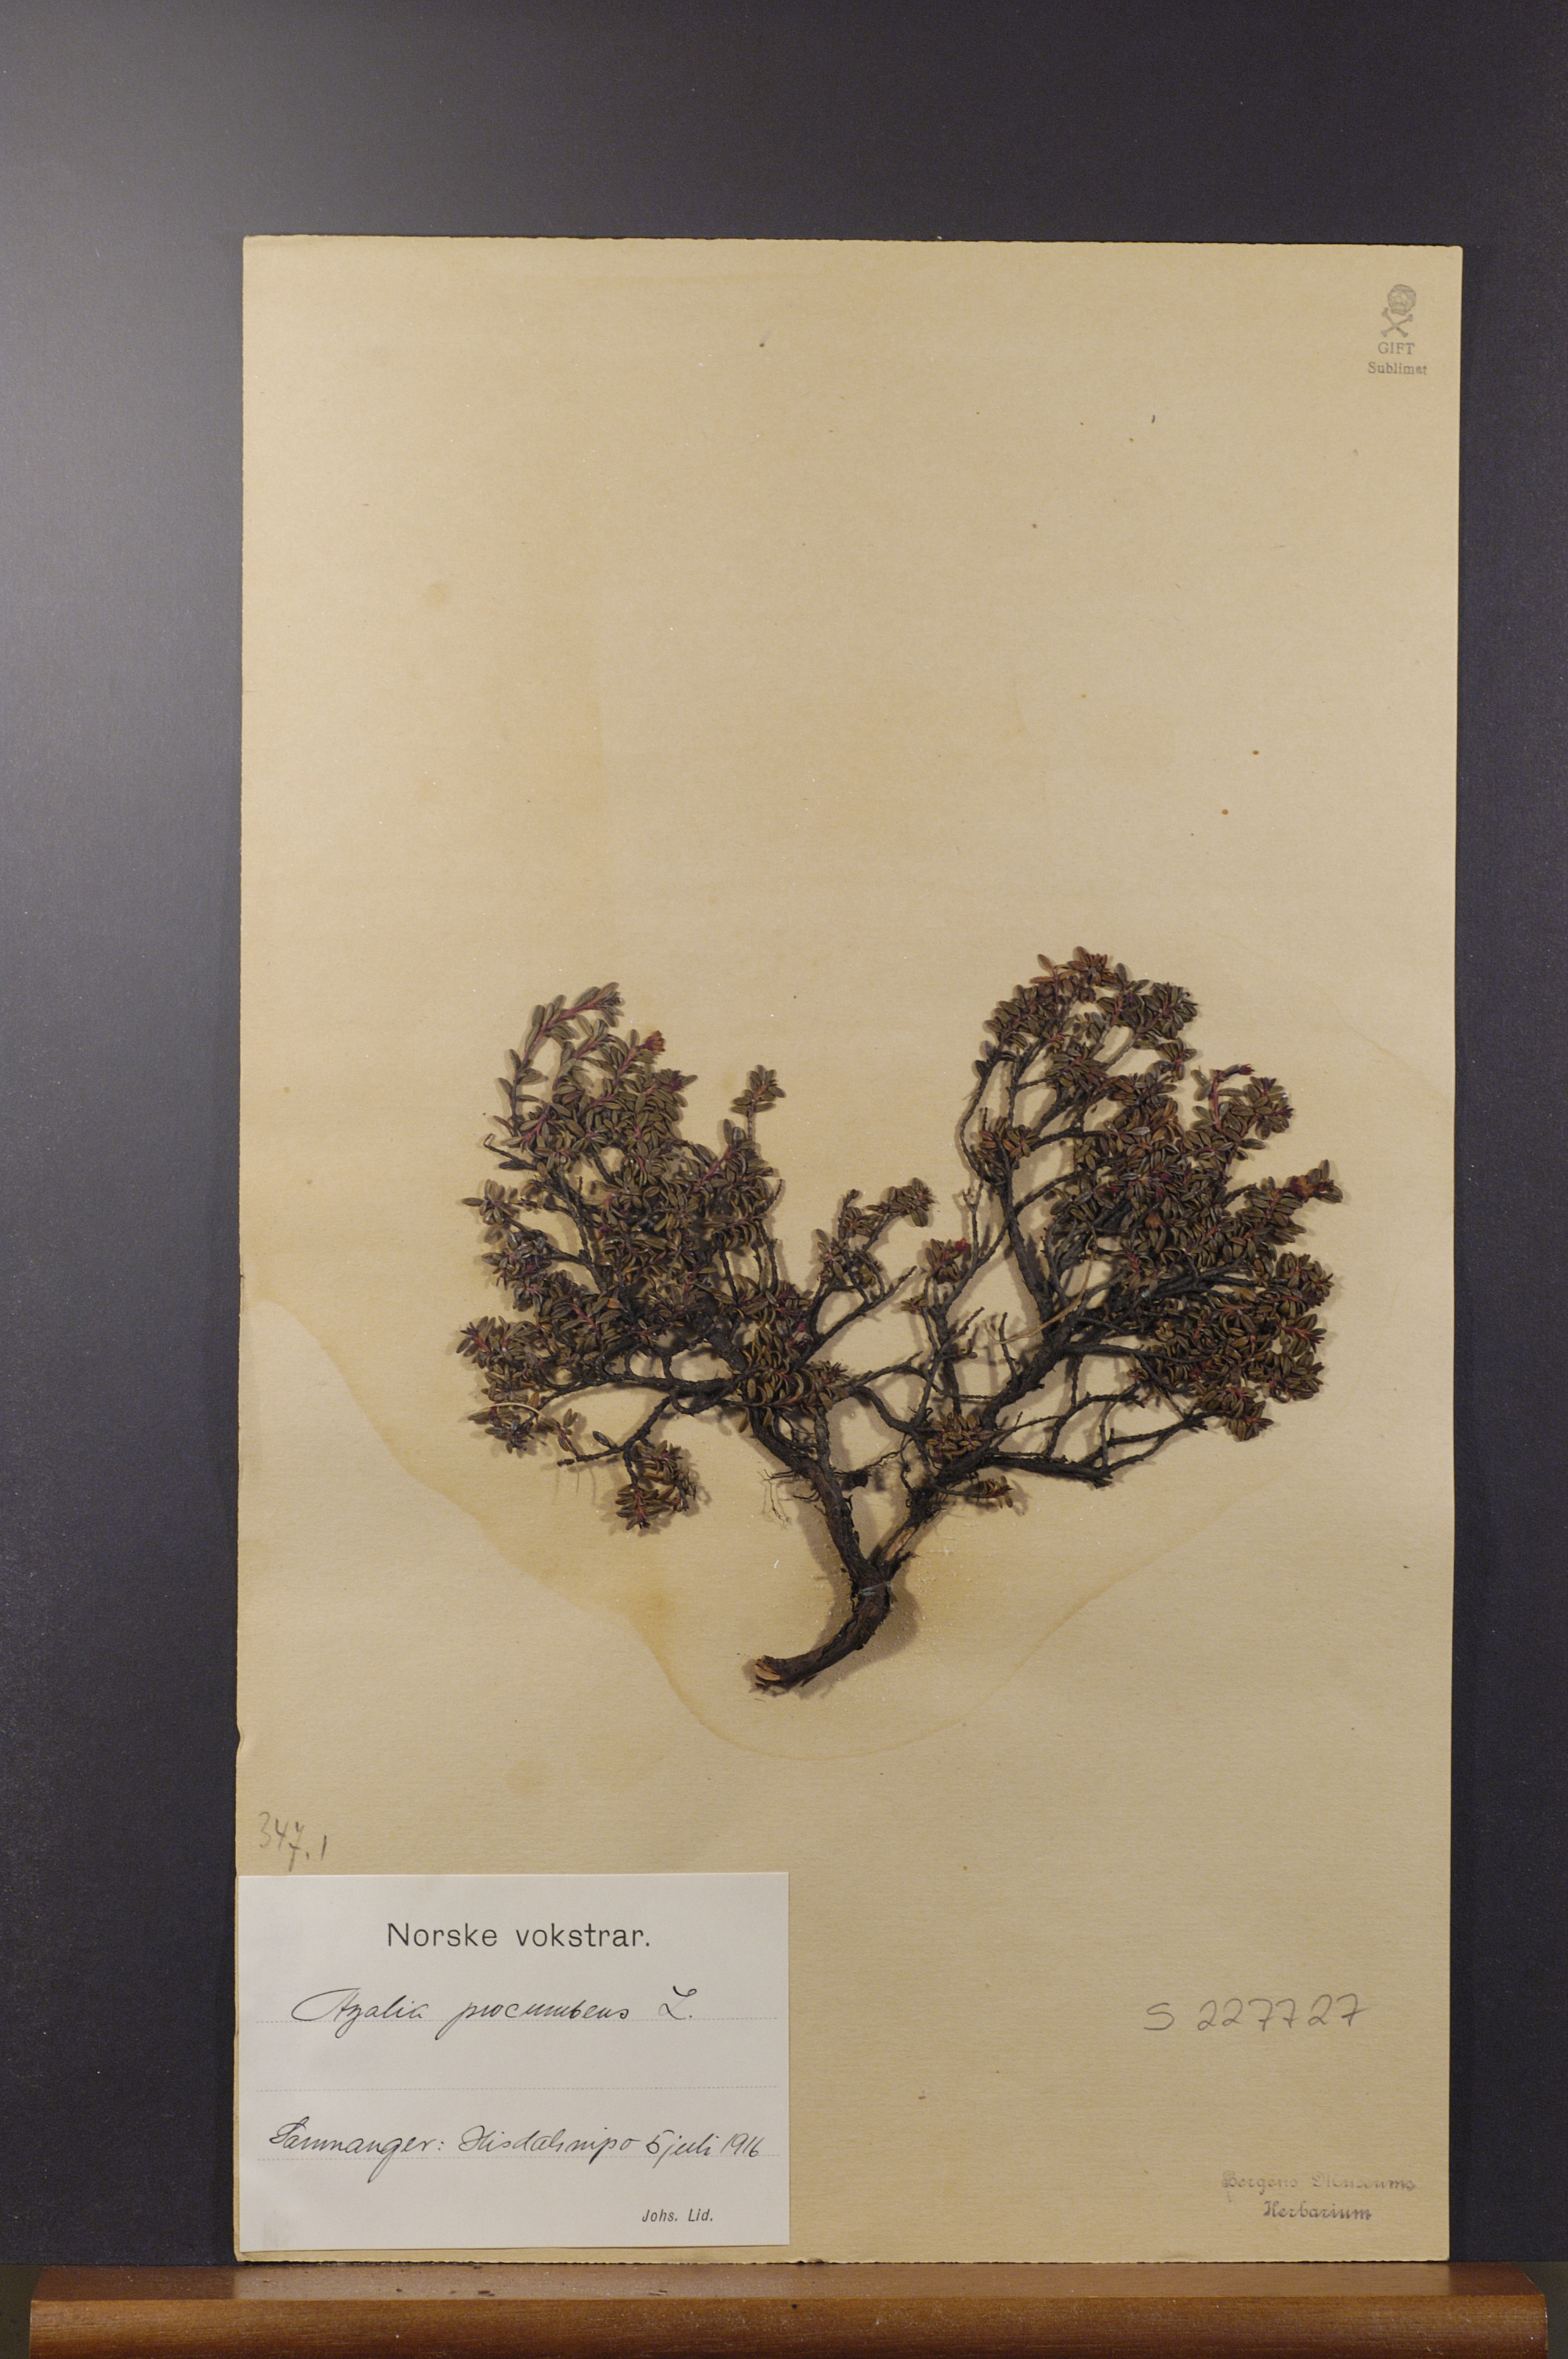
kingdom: Plantae
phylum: Tracheophyta
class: Magnoliopsida
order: Ericales
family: Ericaceae
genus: Kalmia
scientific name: Kalmia procumbens
